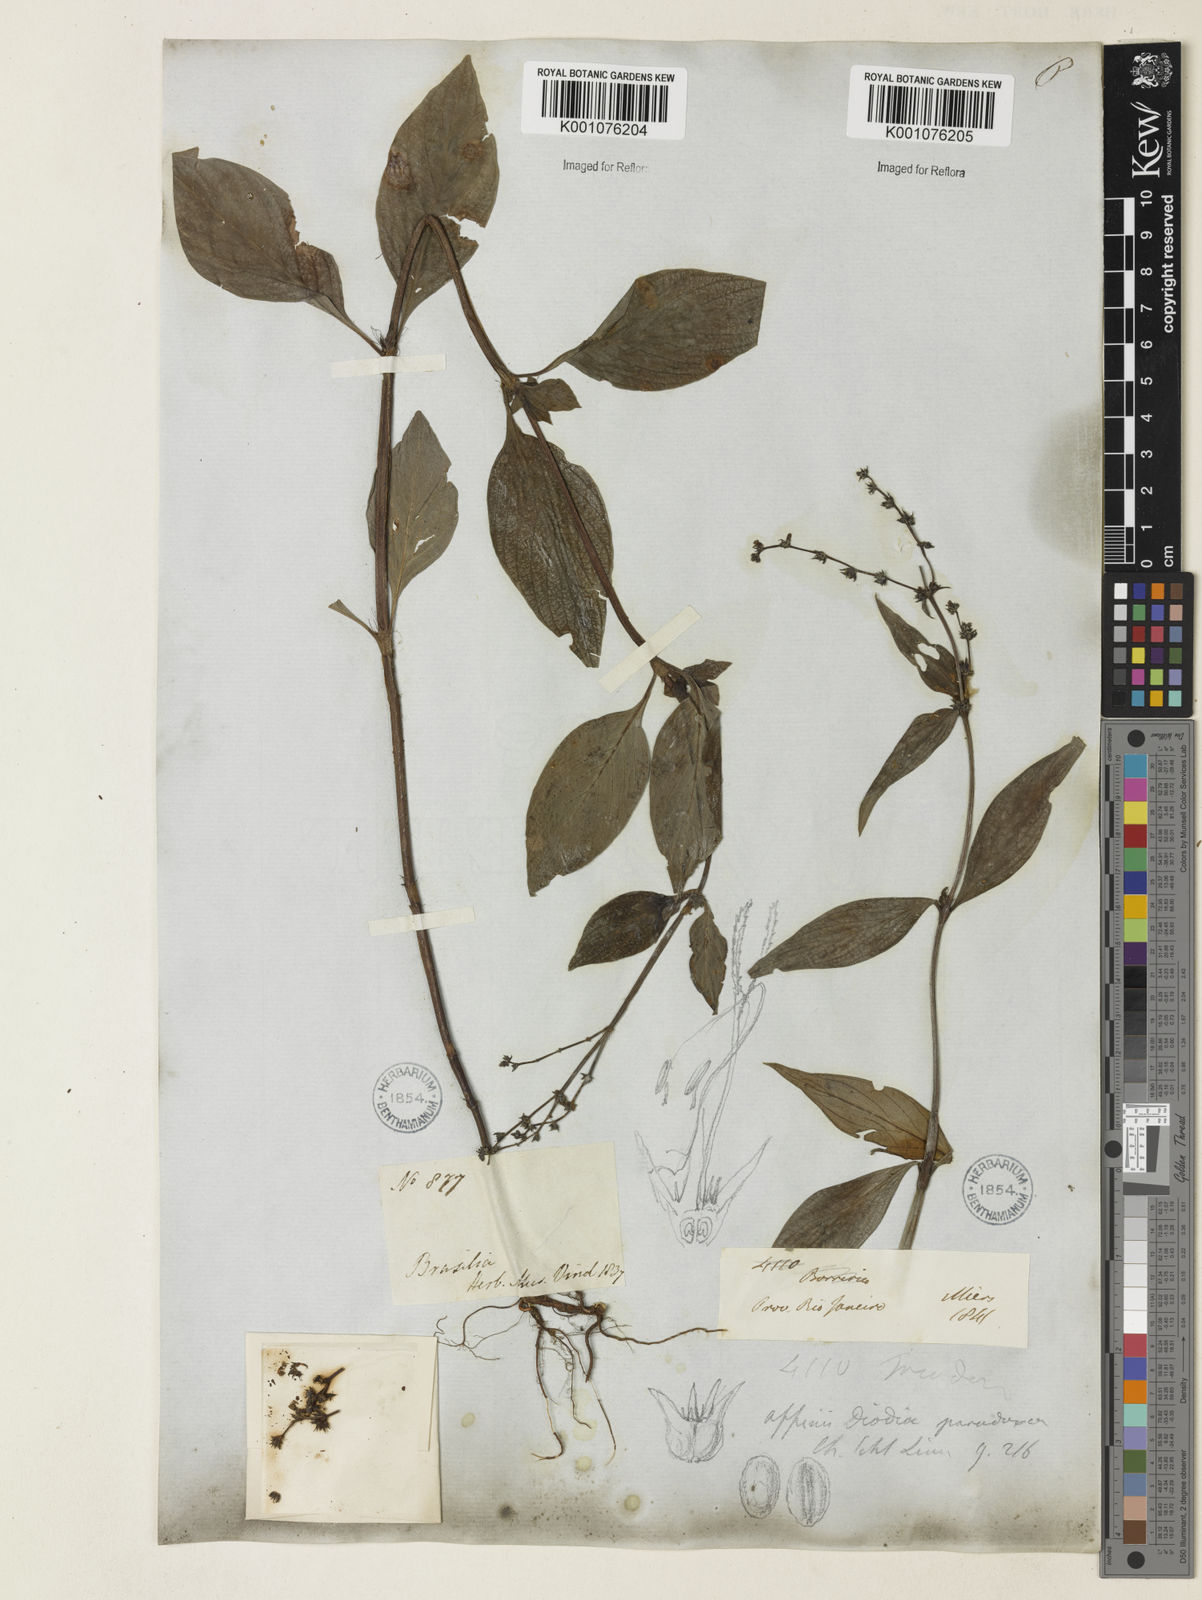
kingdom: Plantae
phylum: Tracheophyta
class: Magnoliopsida
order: Gentianales
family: Rubiaceae
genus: Spermacoce
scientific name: Spermacoce
